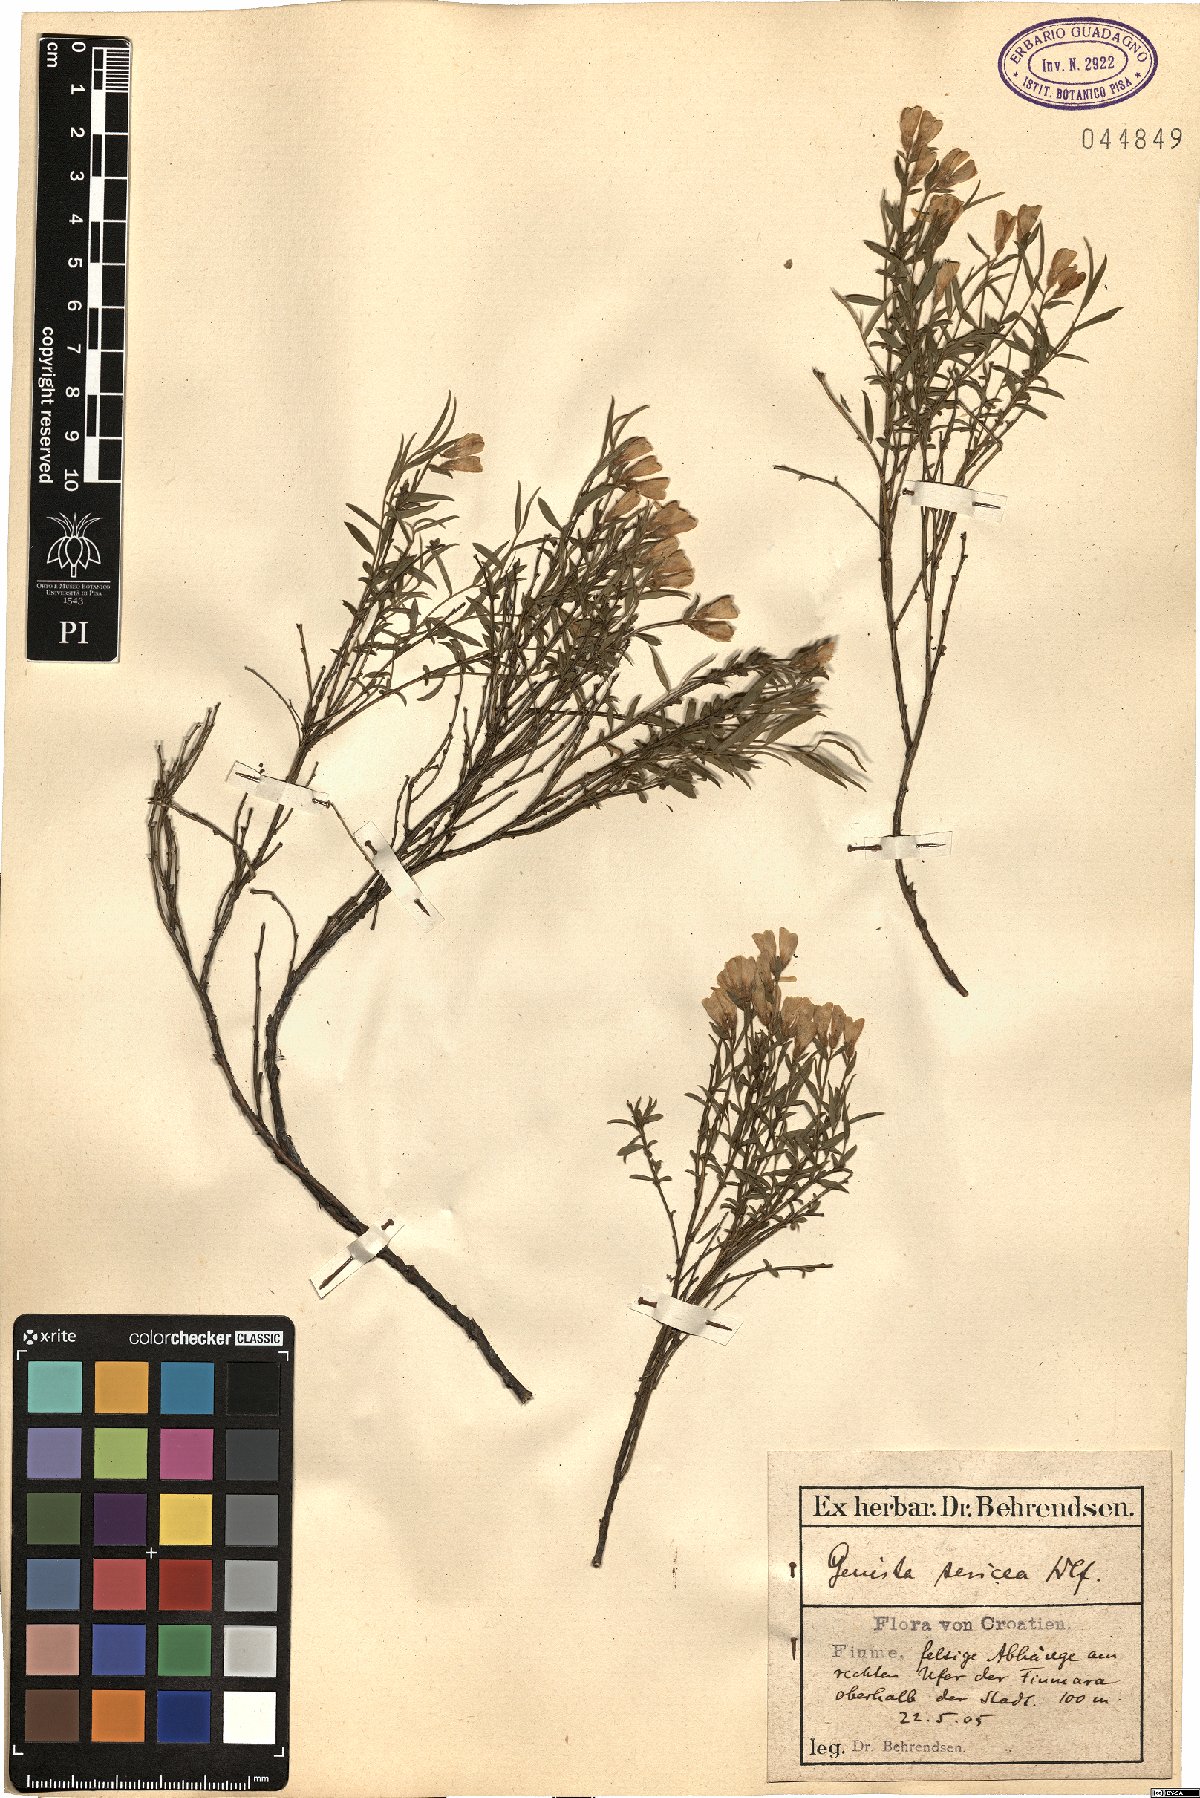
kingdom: Plantae
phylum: Tracheophyta
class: Magnoliopsida
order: Fabales
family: Fabaceae
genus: Genista
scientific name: Genista sericea
